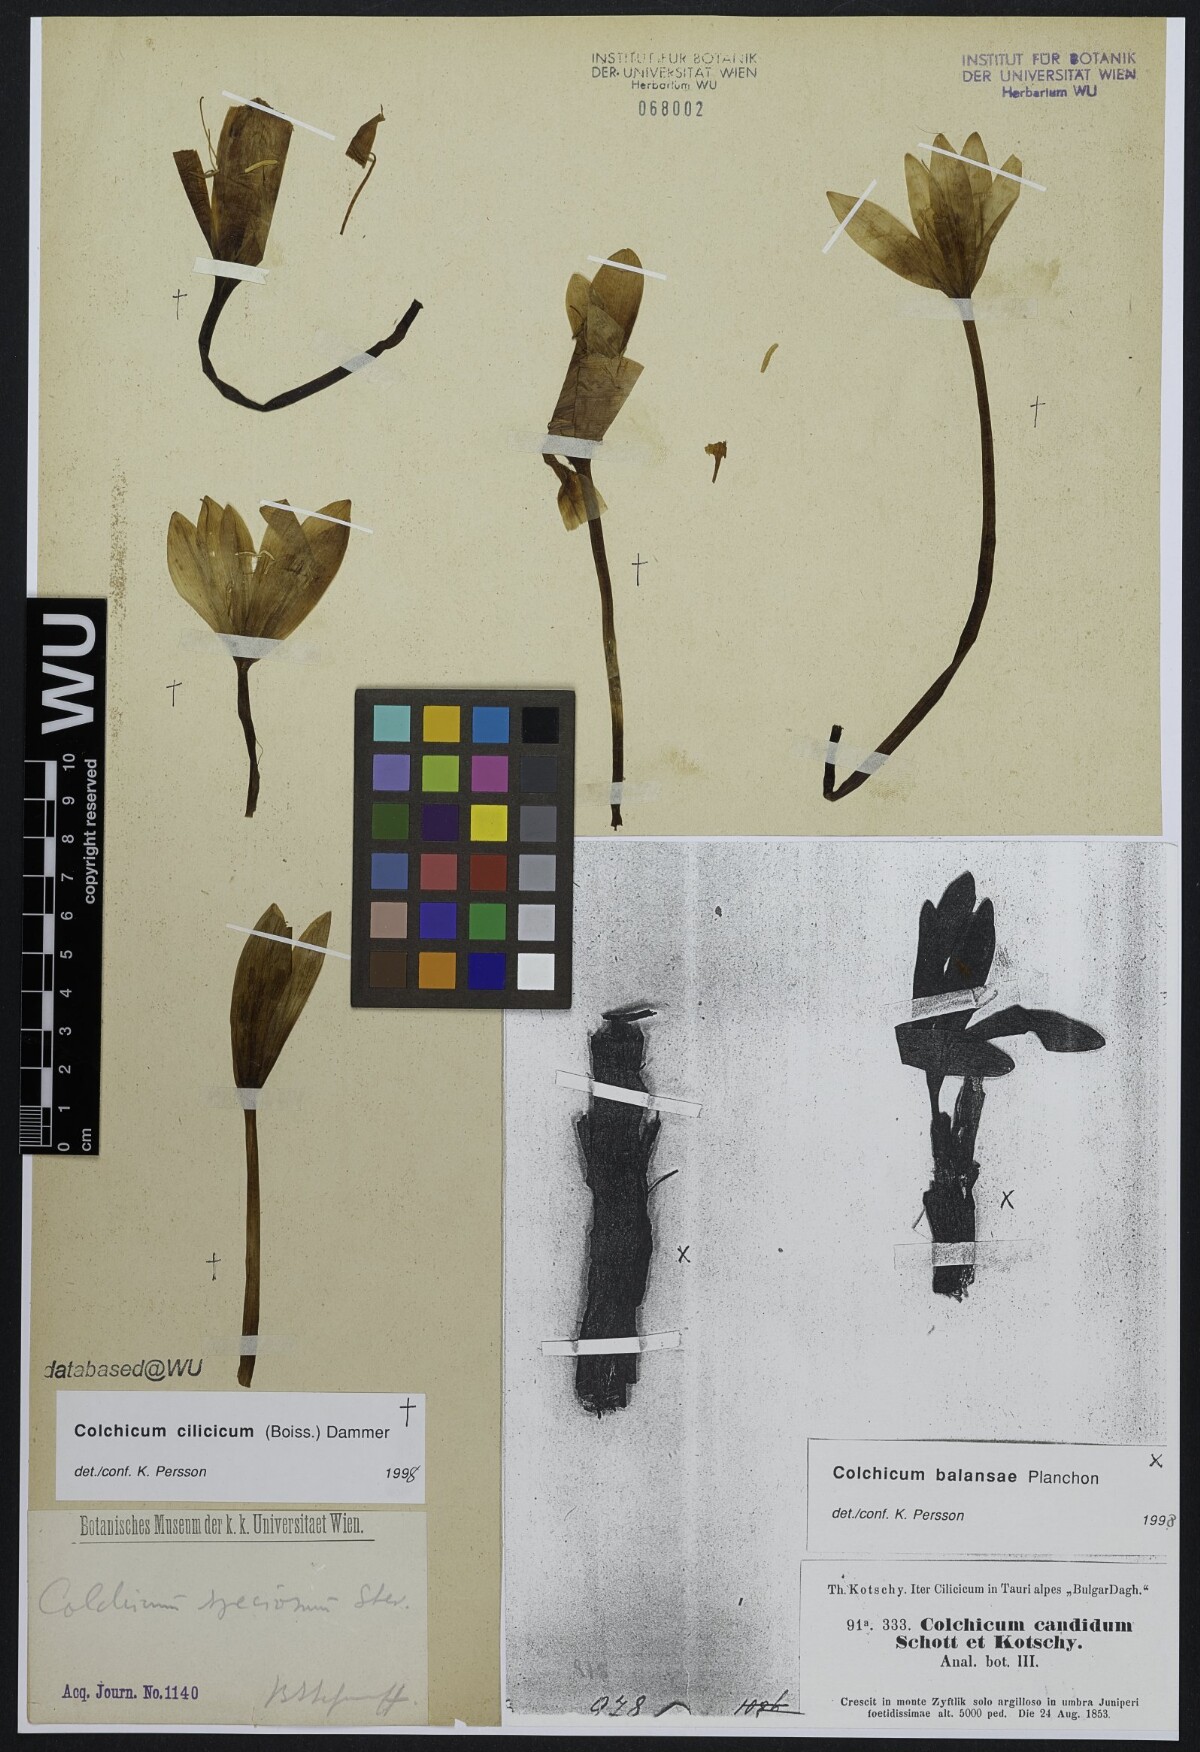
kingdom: Plantae
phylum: Tracheophyta
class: Liliopsida
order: Liliales
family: Colchicaceae
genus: Colchicum
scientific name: Colchicum cilicicum
